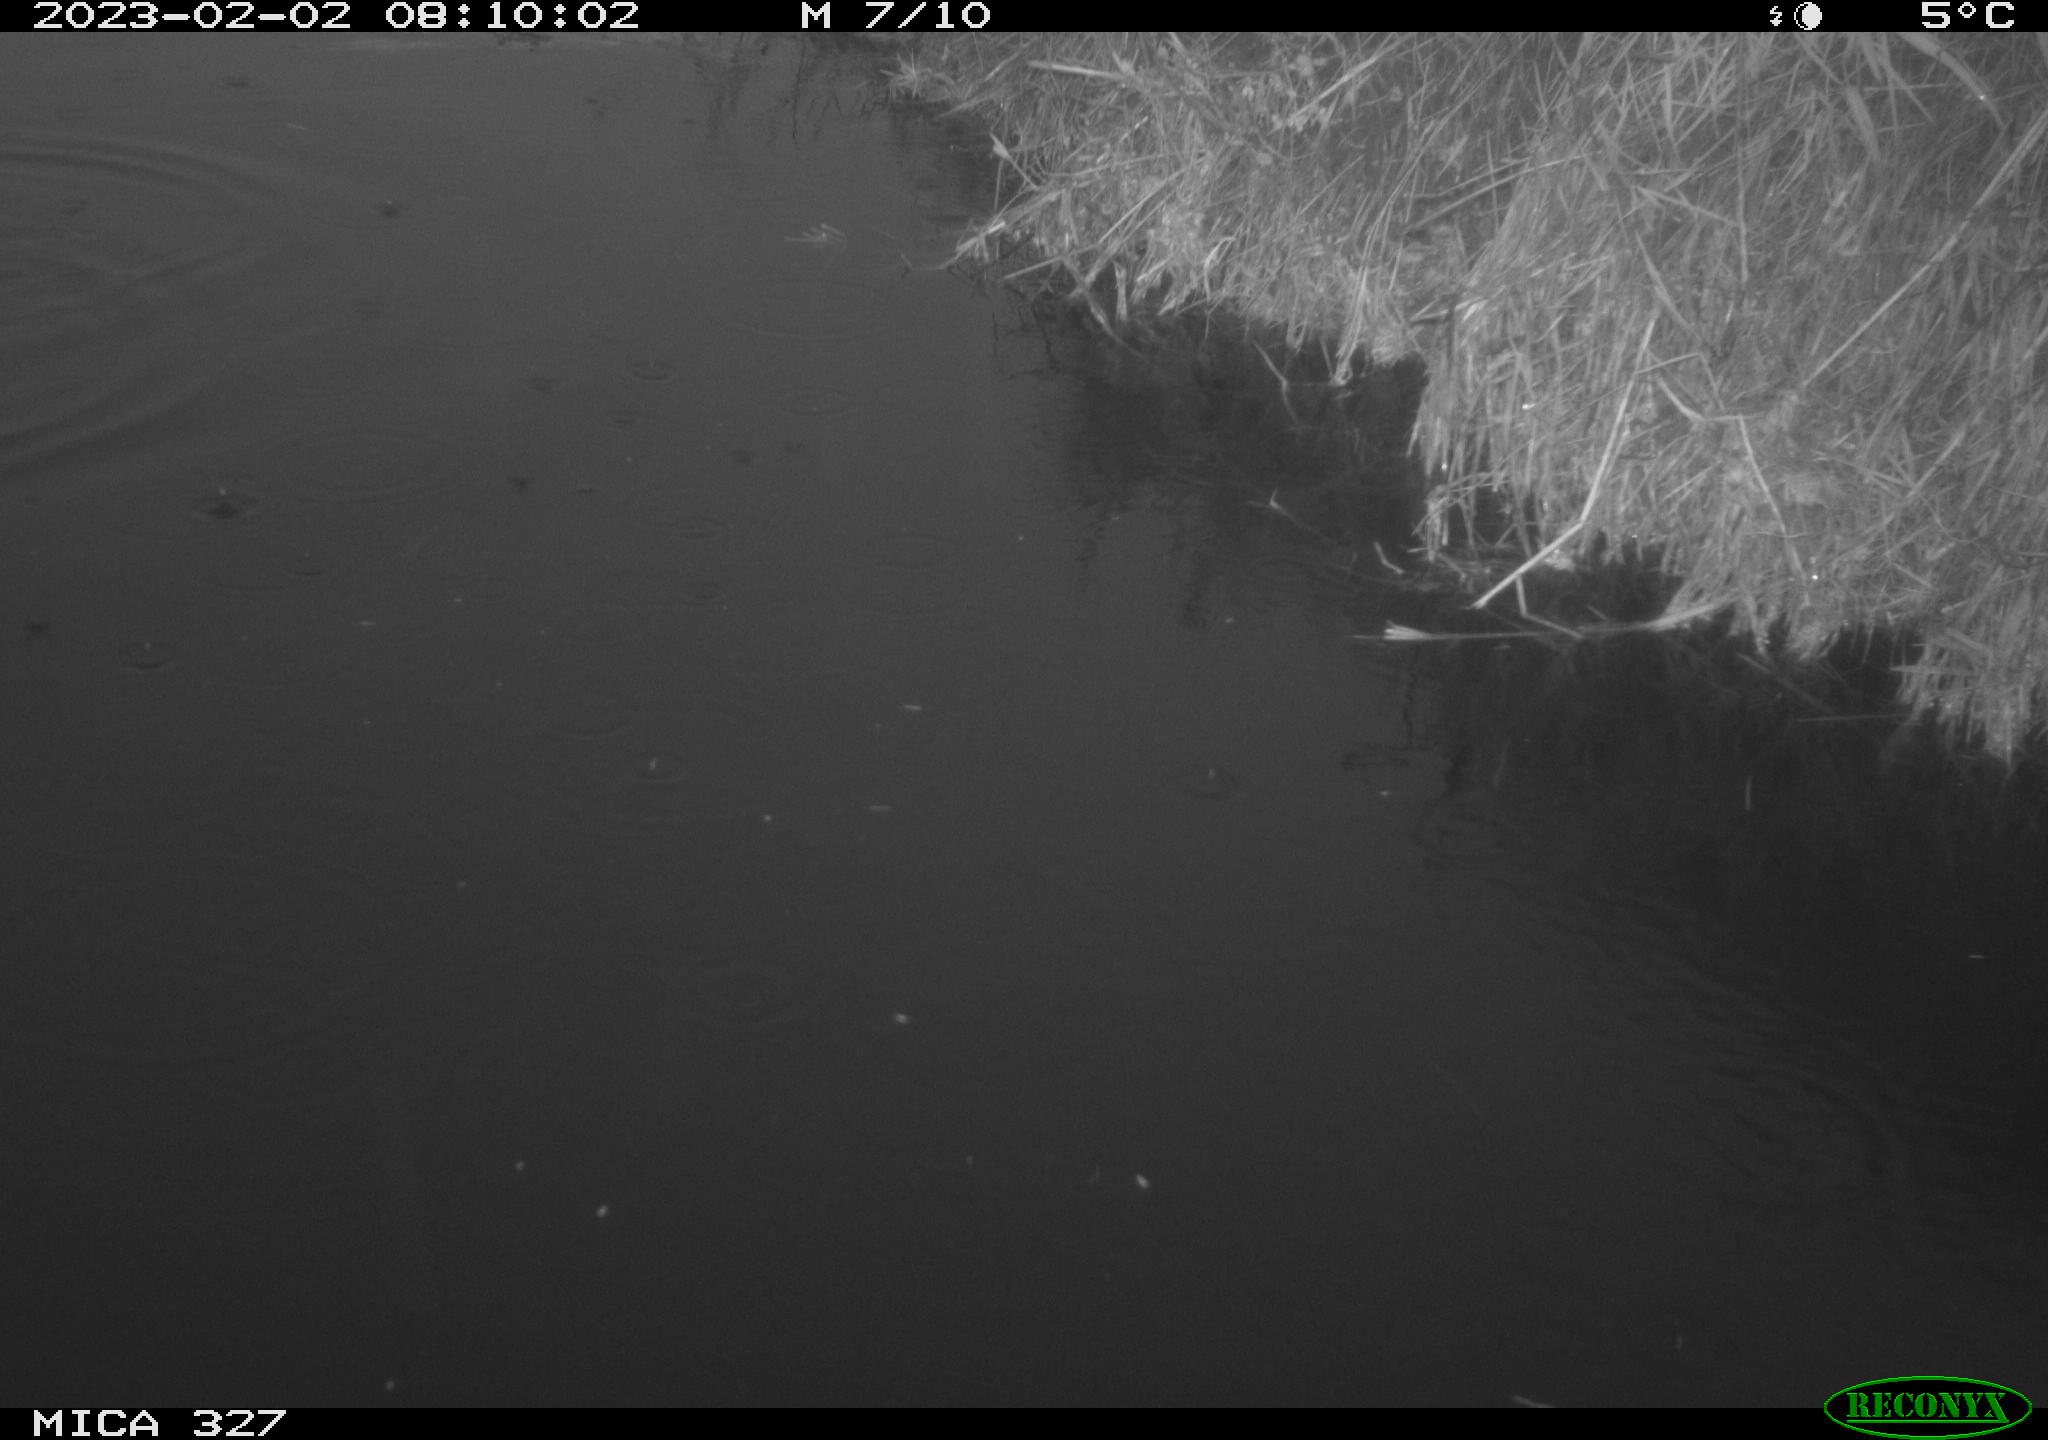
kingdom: Animalia
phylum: Chordata
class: Aves
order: Podicipediformes
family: Podicipedidae
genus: Tachybaptus
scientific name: Tachybaptus ruficollis
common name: Little grebe
